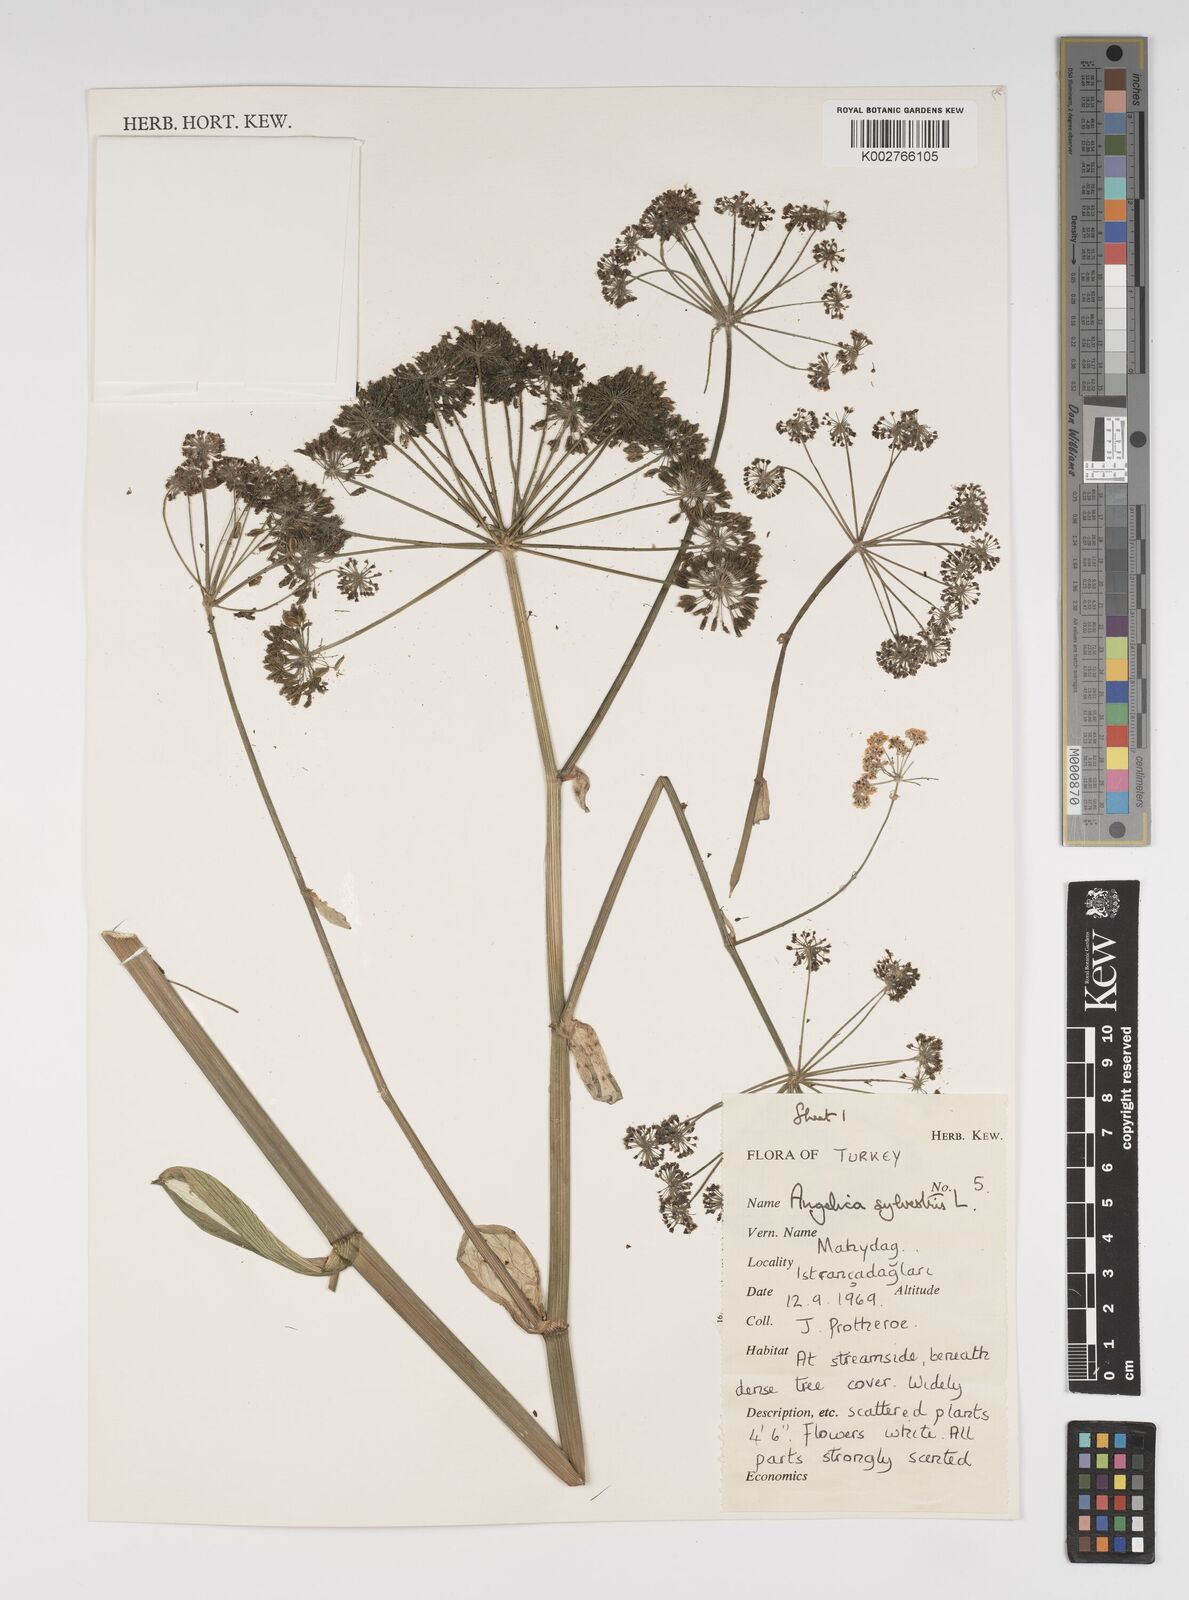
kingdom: Plantae
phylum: Tracheophyta
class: Magnoliopsida
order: Apiales
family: Apiaceae
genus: Angelica
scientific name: Angelica sylvestris
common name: Wild angelica
